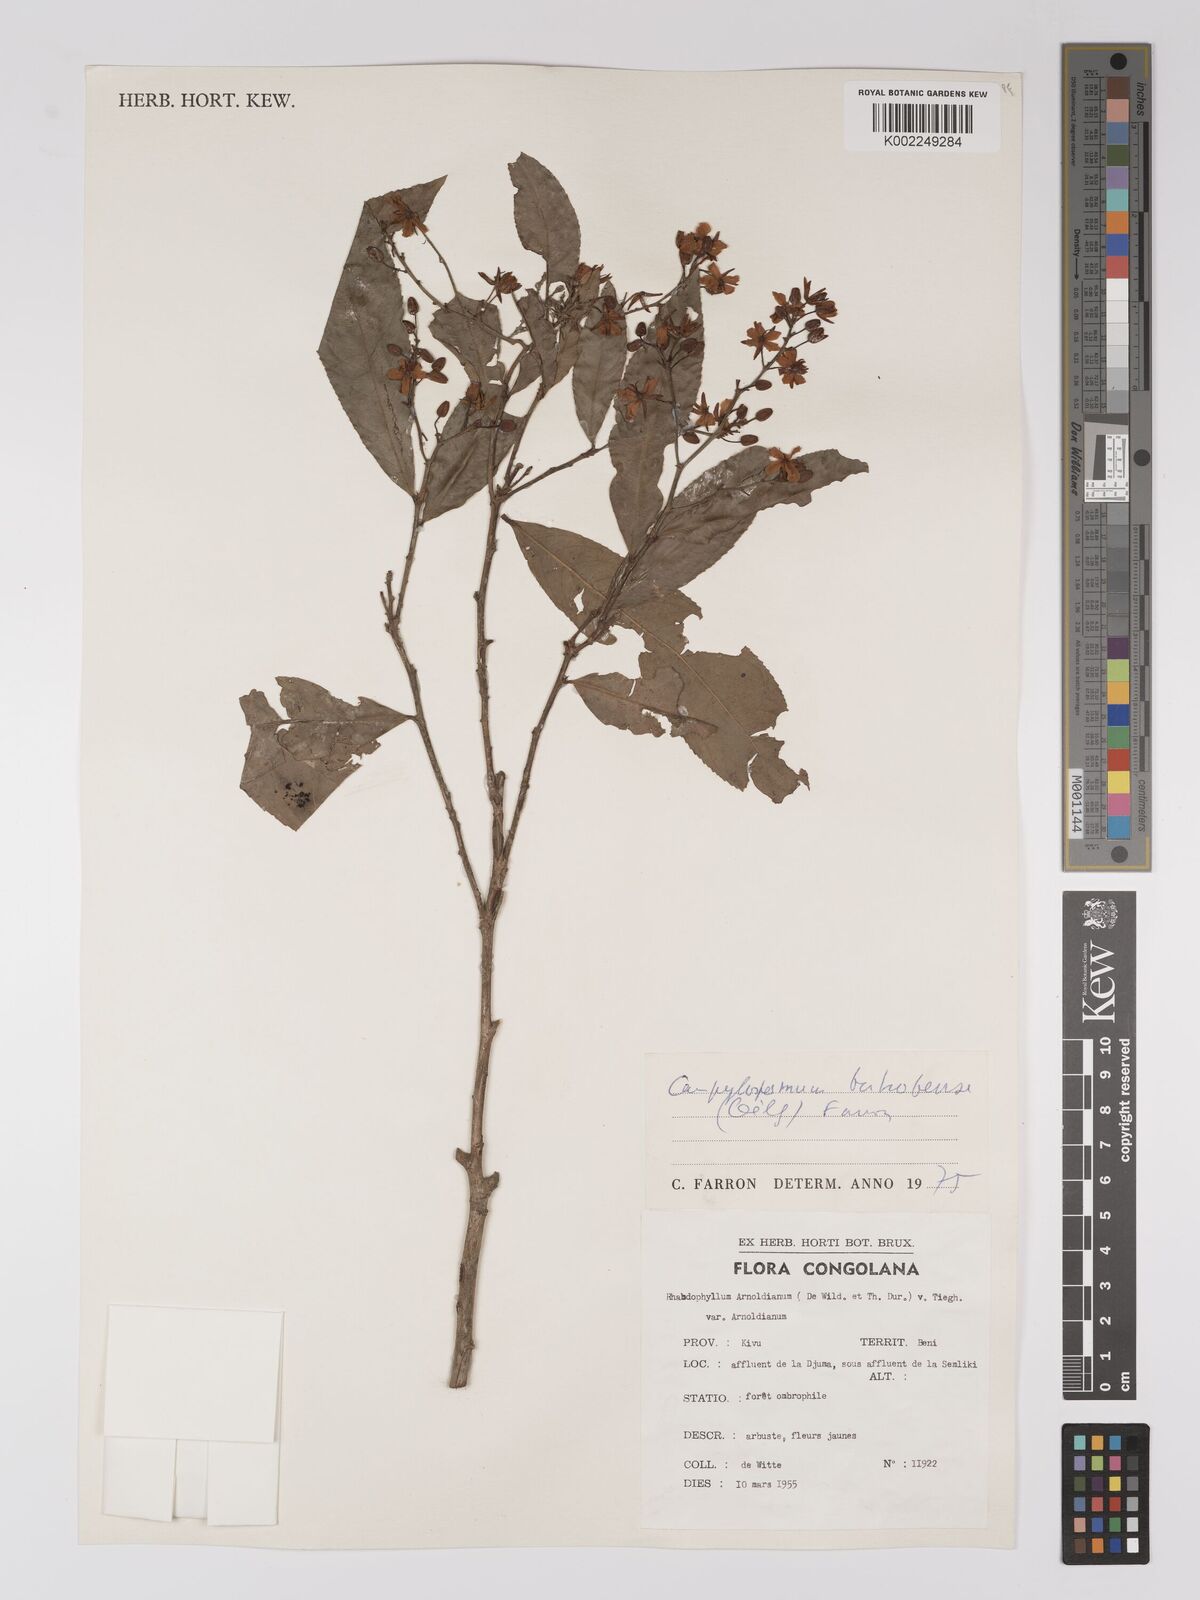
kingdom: Plantae
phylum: Tracheophyta
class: Magnoliopsida
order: Malpighiales
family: Ochnaceae
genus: Campylospermum
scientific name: Campylospermum likimiense
